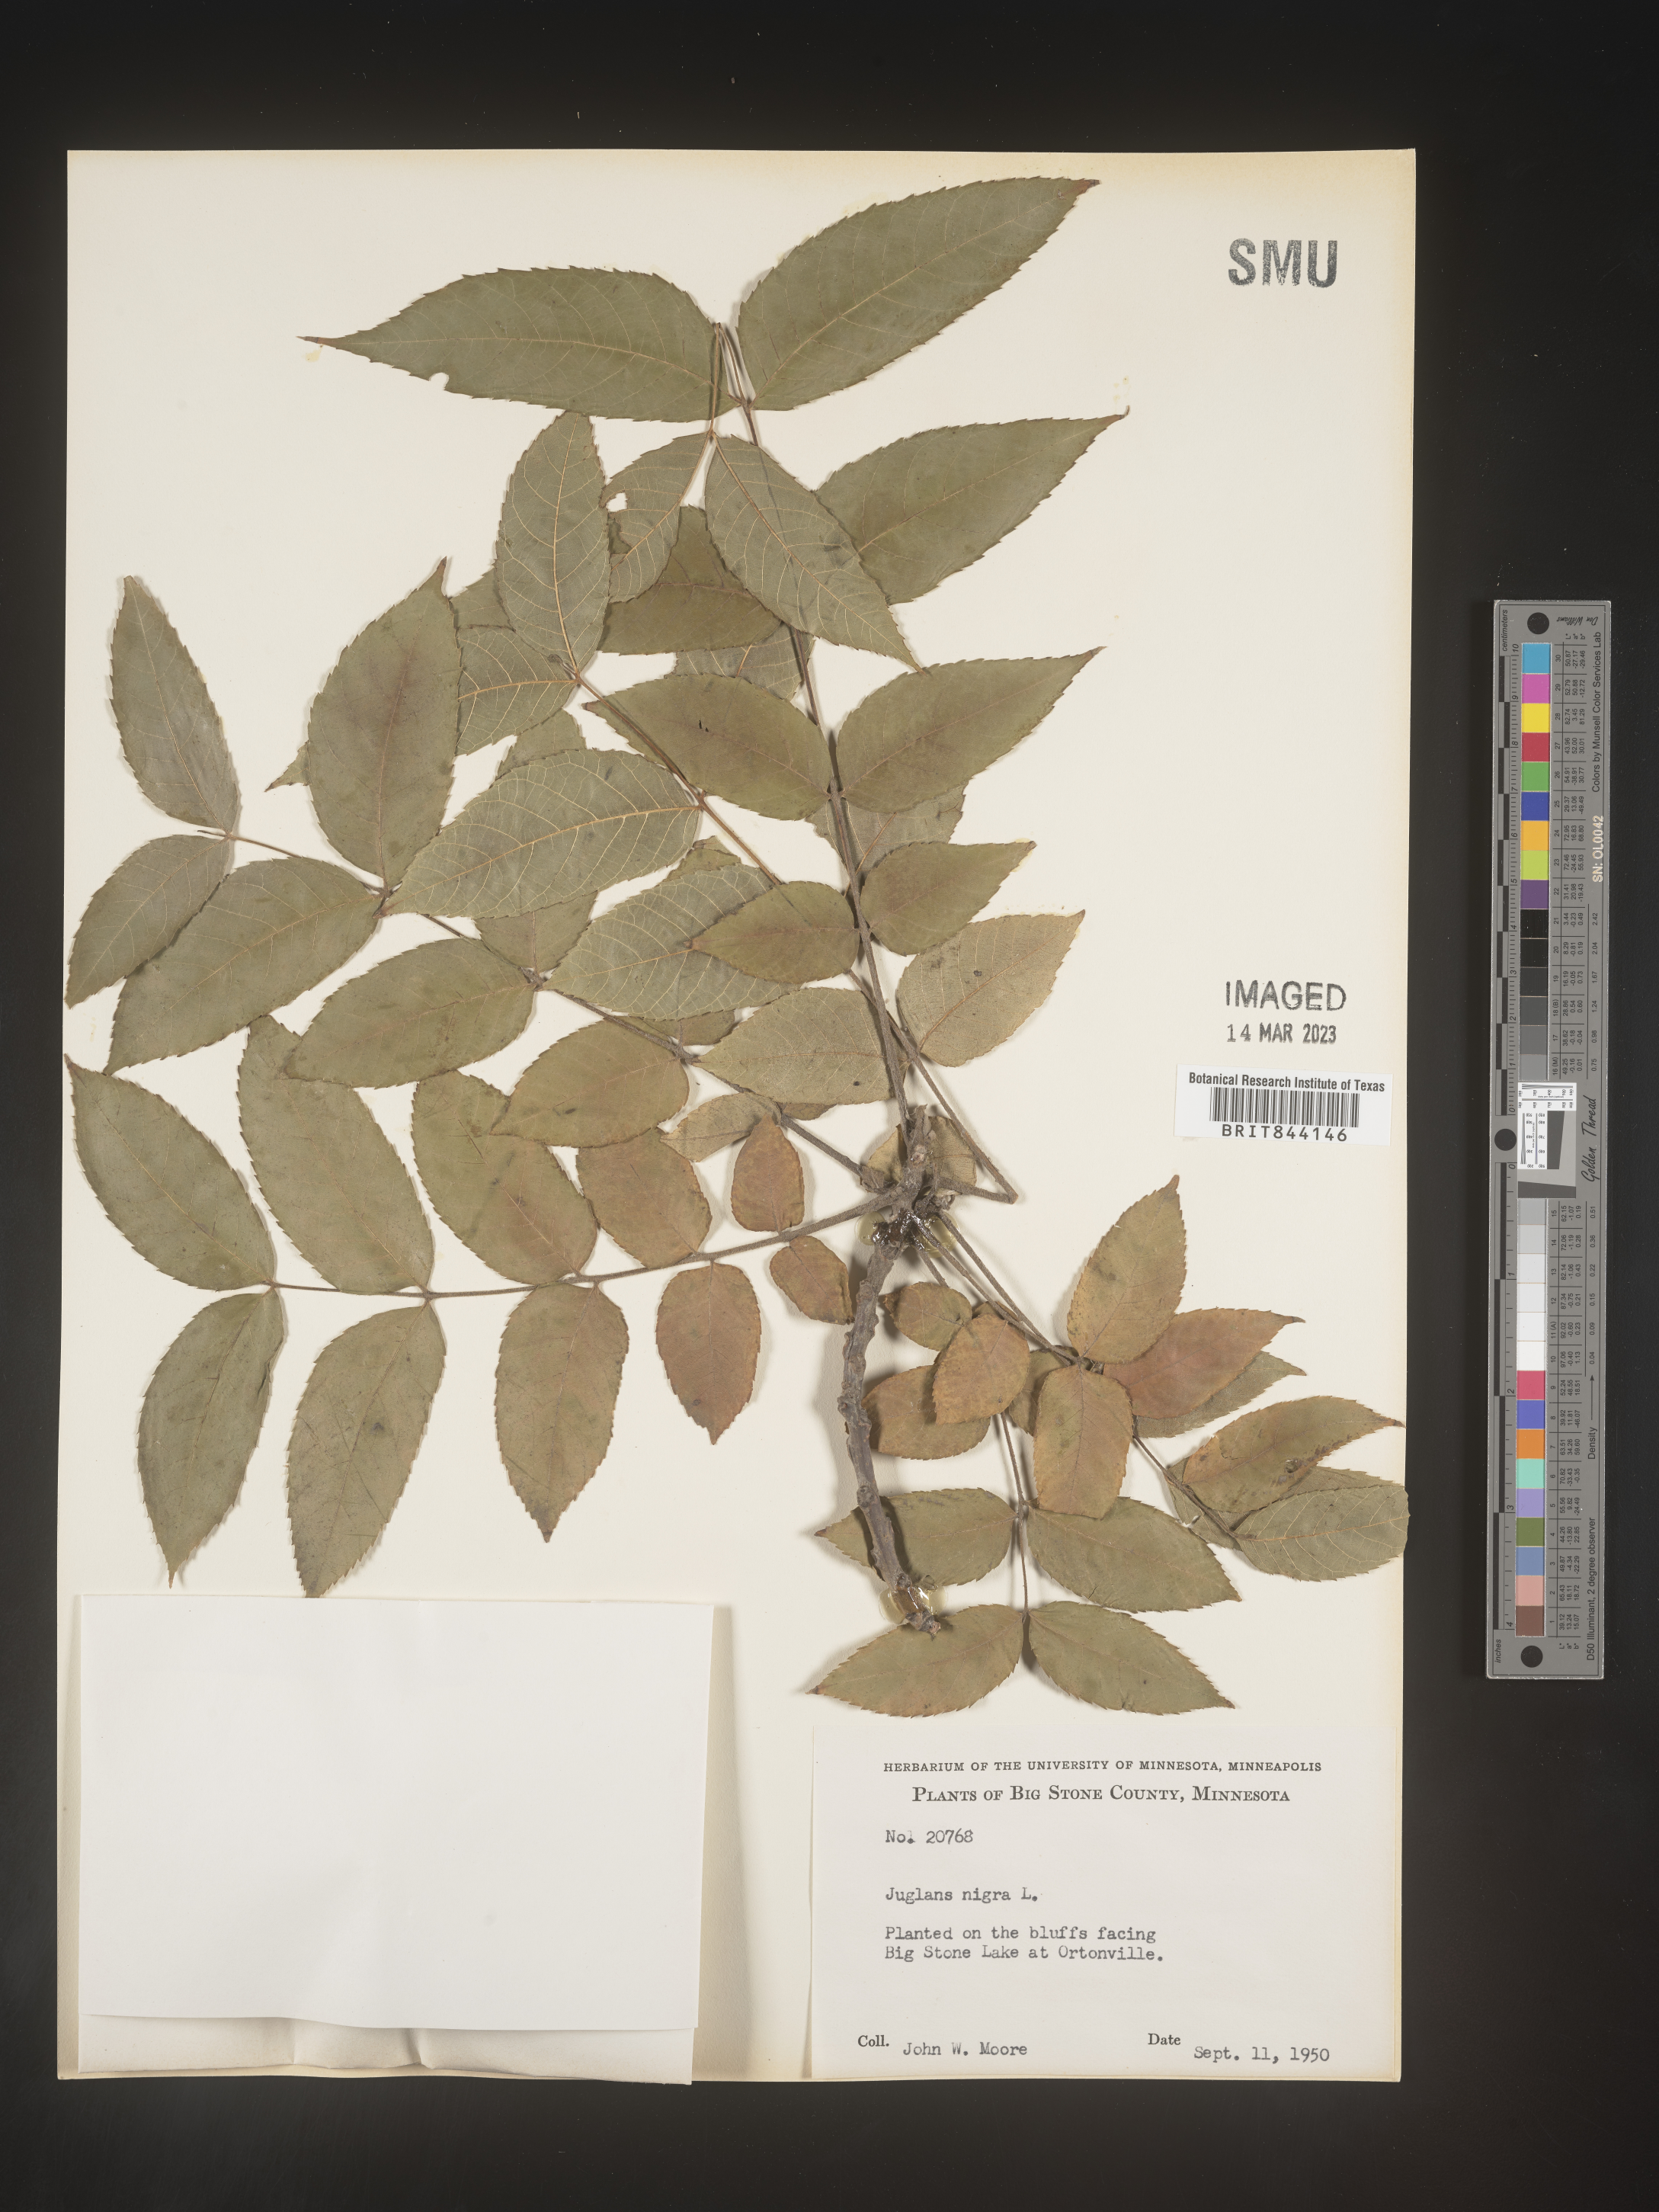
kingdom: Plantae
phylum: Tracheophyta
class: Magnoliopsida
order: Fagales
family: Juglandaceae
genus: Juglans
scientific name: Juglans nigra
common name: Black walnut
